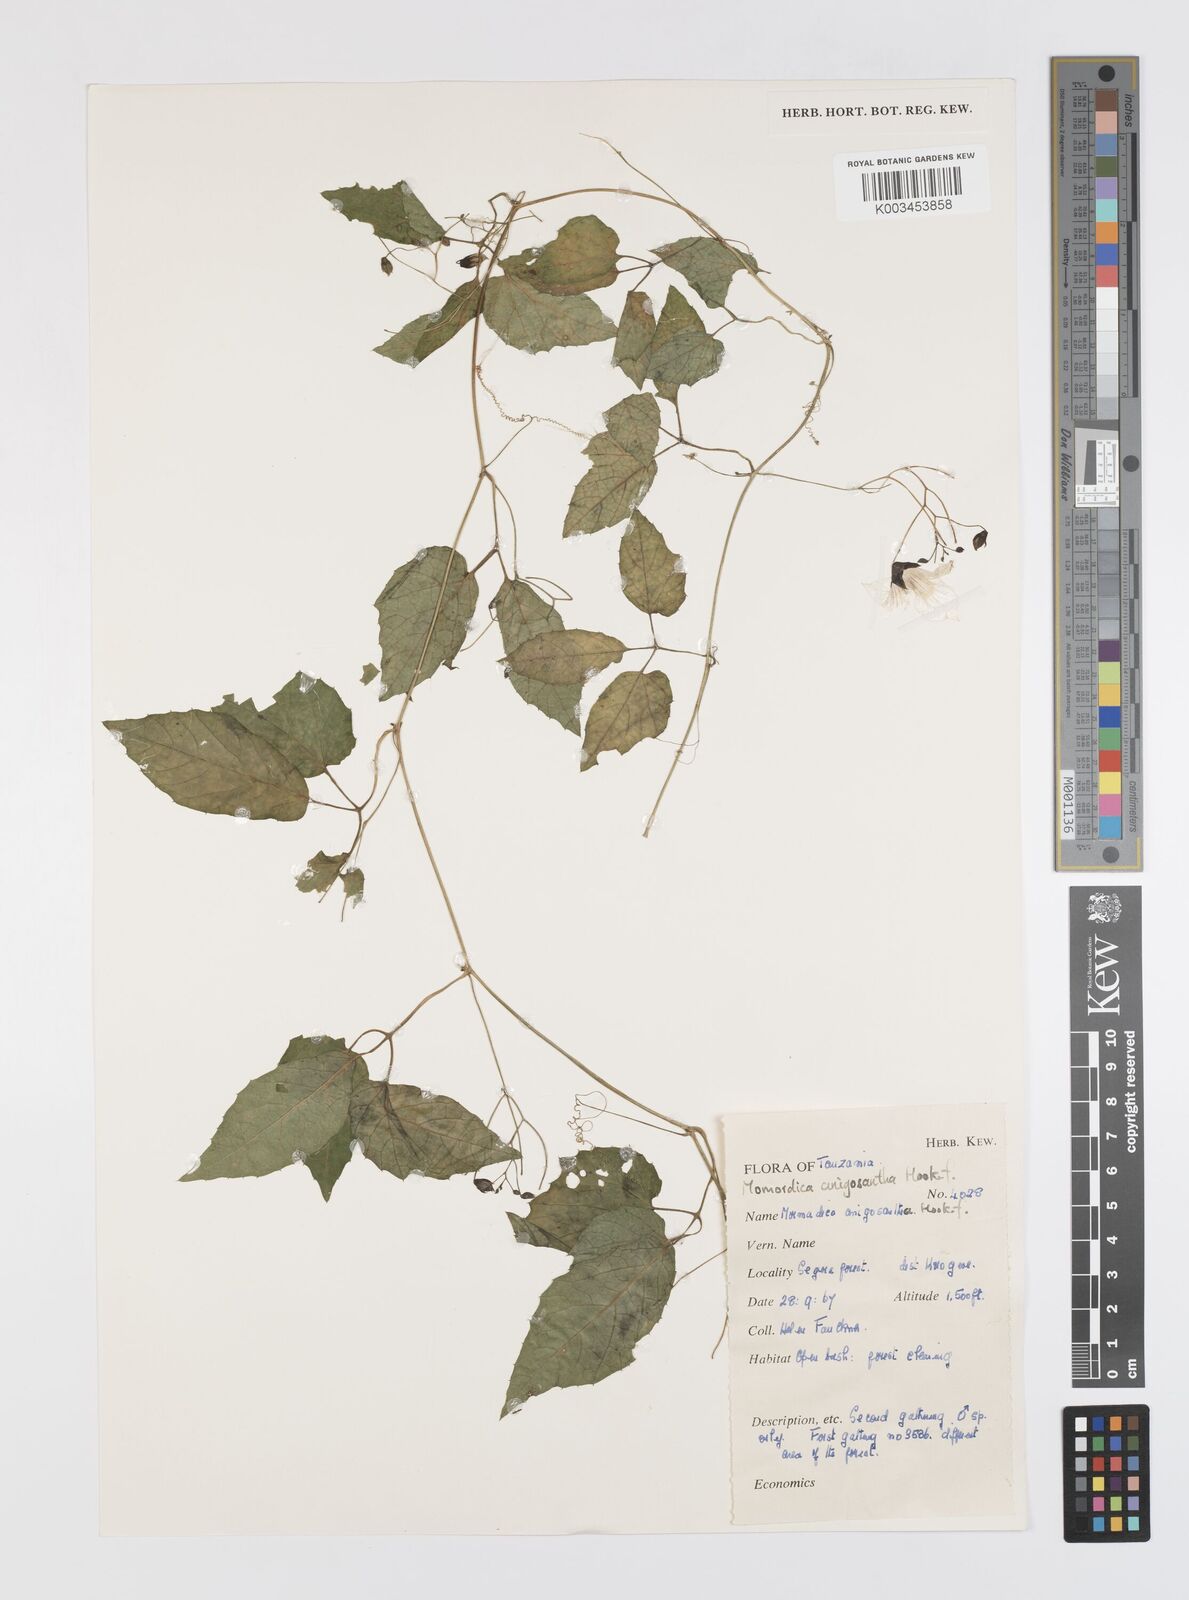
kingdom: Plantae
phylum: Tracheophyta
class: Magnoliopsida
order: Cucurbitales
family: Cucurbitaceae
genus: Momordica
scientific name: Momordica anigosantha
